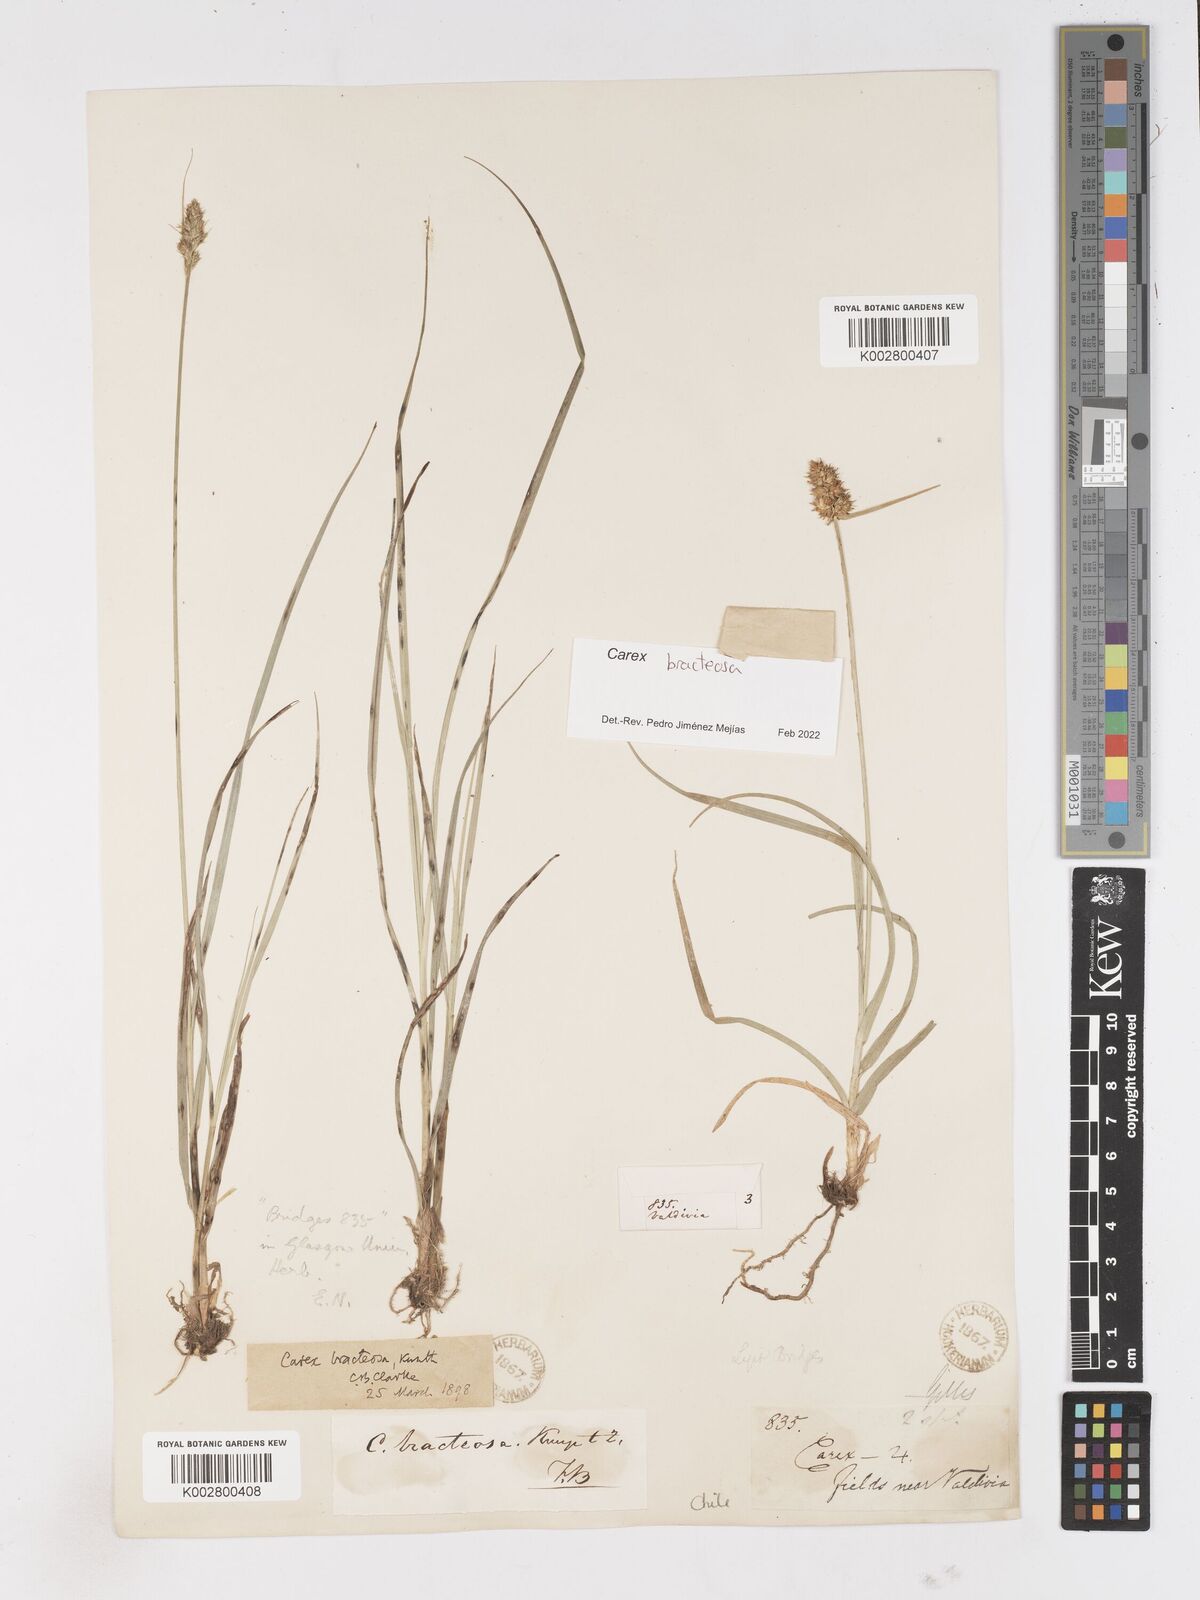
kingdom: Plantae
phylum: Tracheophyta
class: Liliopsida
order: Poales
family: Cyperaceae
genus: Carex
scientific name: Carex bracteosa
